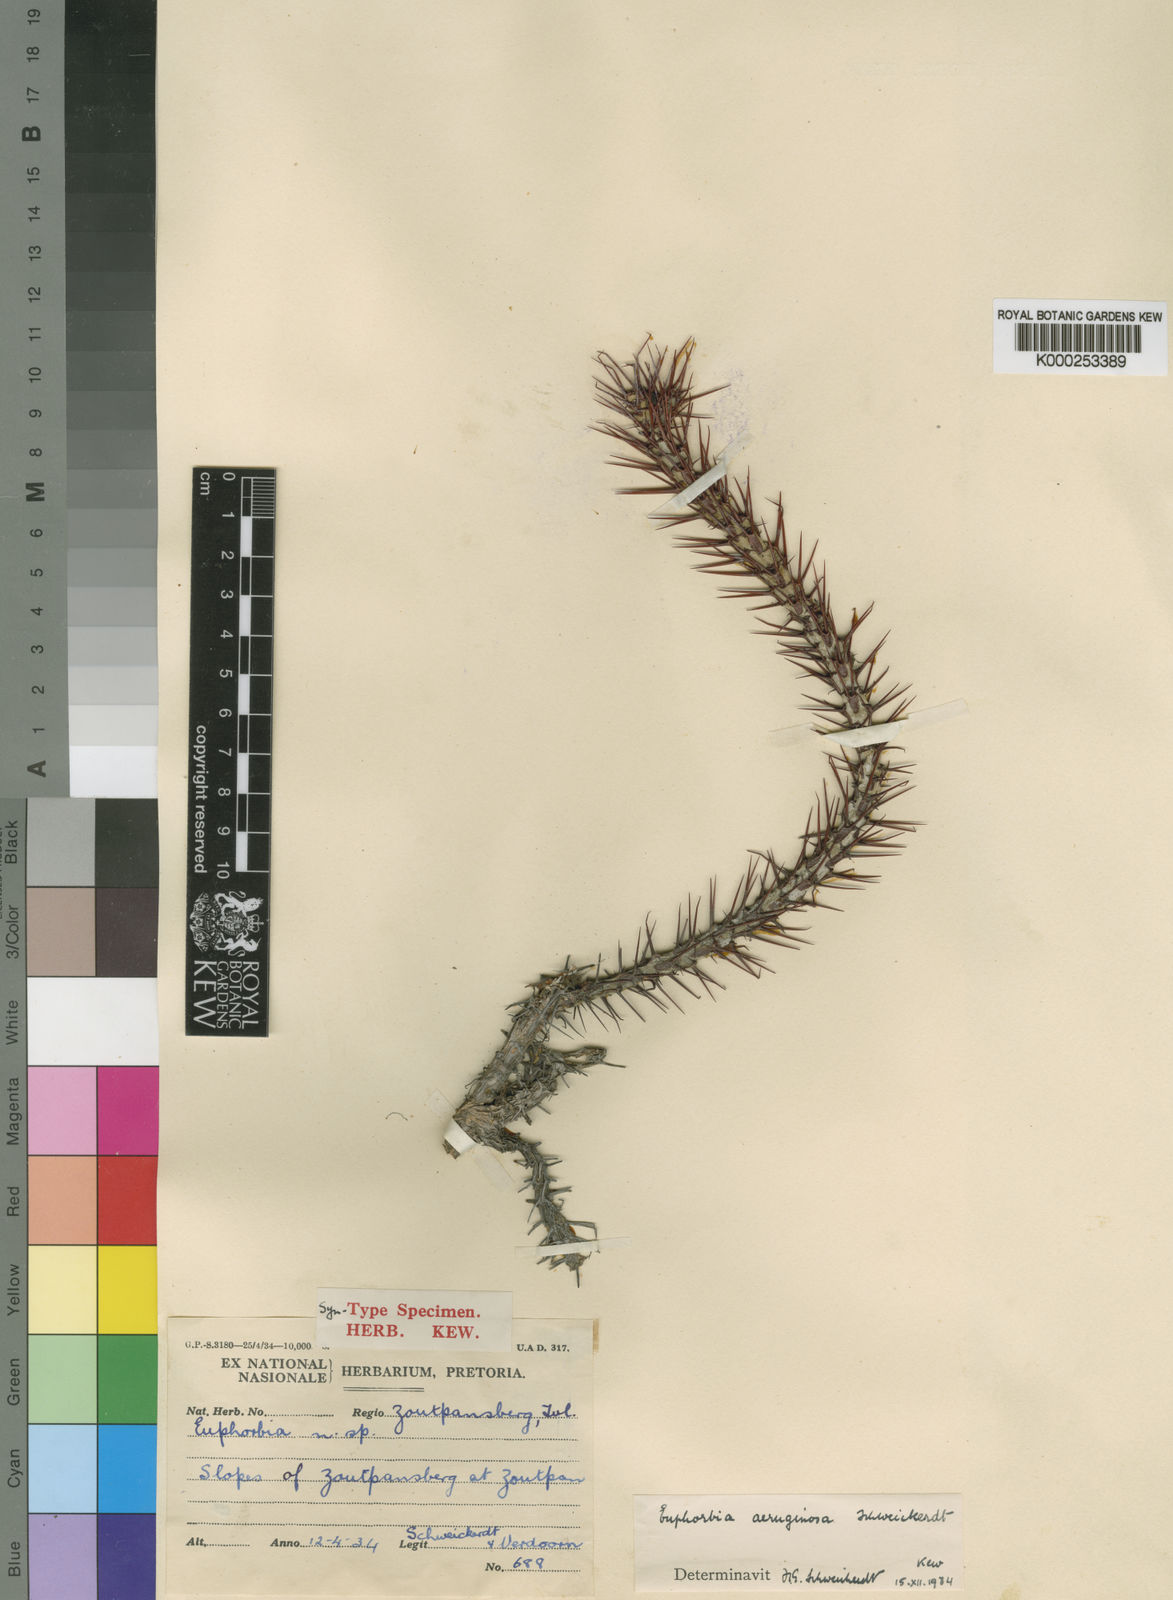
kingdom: Plantae
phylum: Tracheophyta
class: Magnoliopsida
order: Malpighiales
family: Euphorbiaceae
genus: Euphorbia
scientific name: Euphorbia aeruginosa
